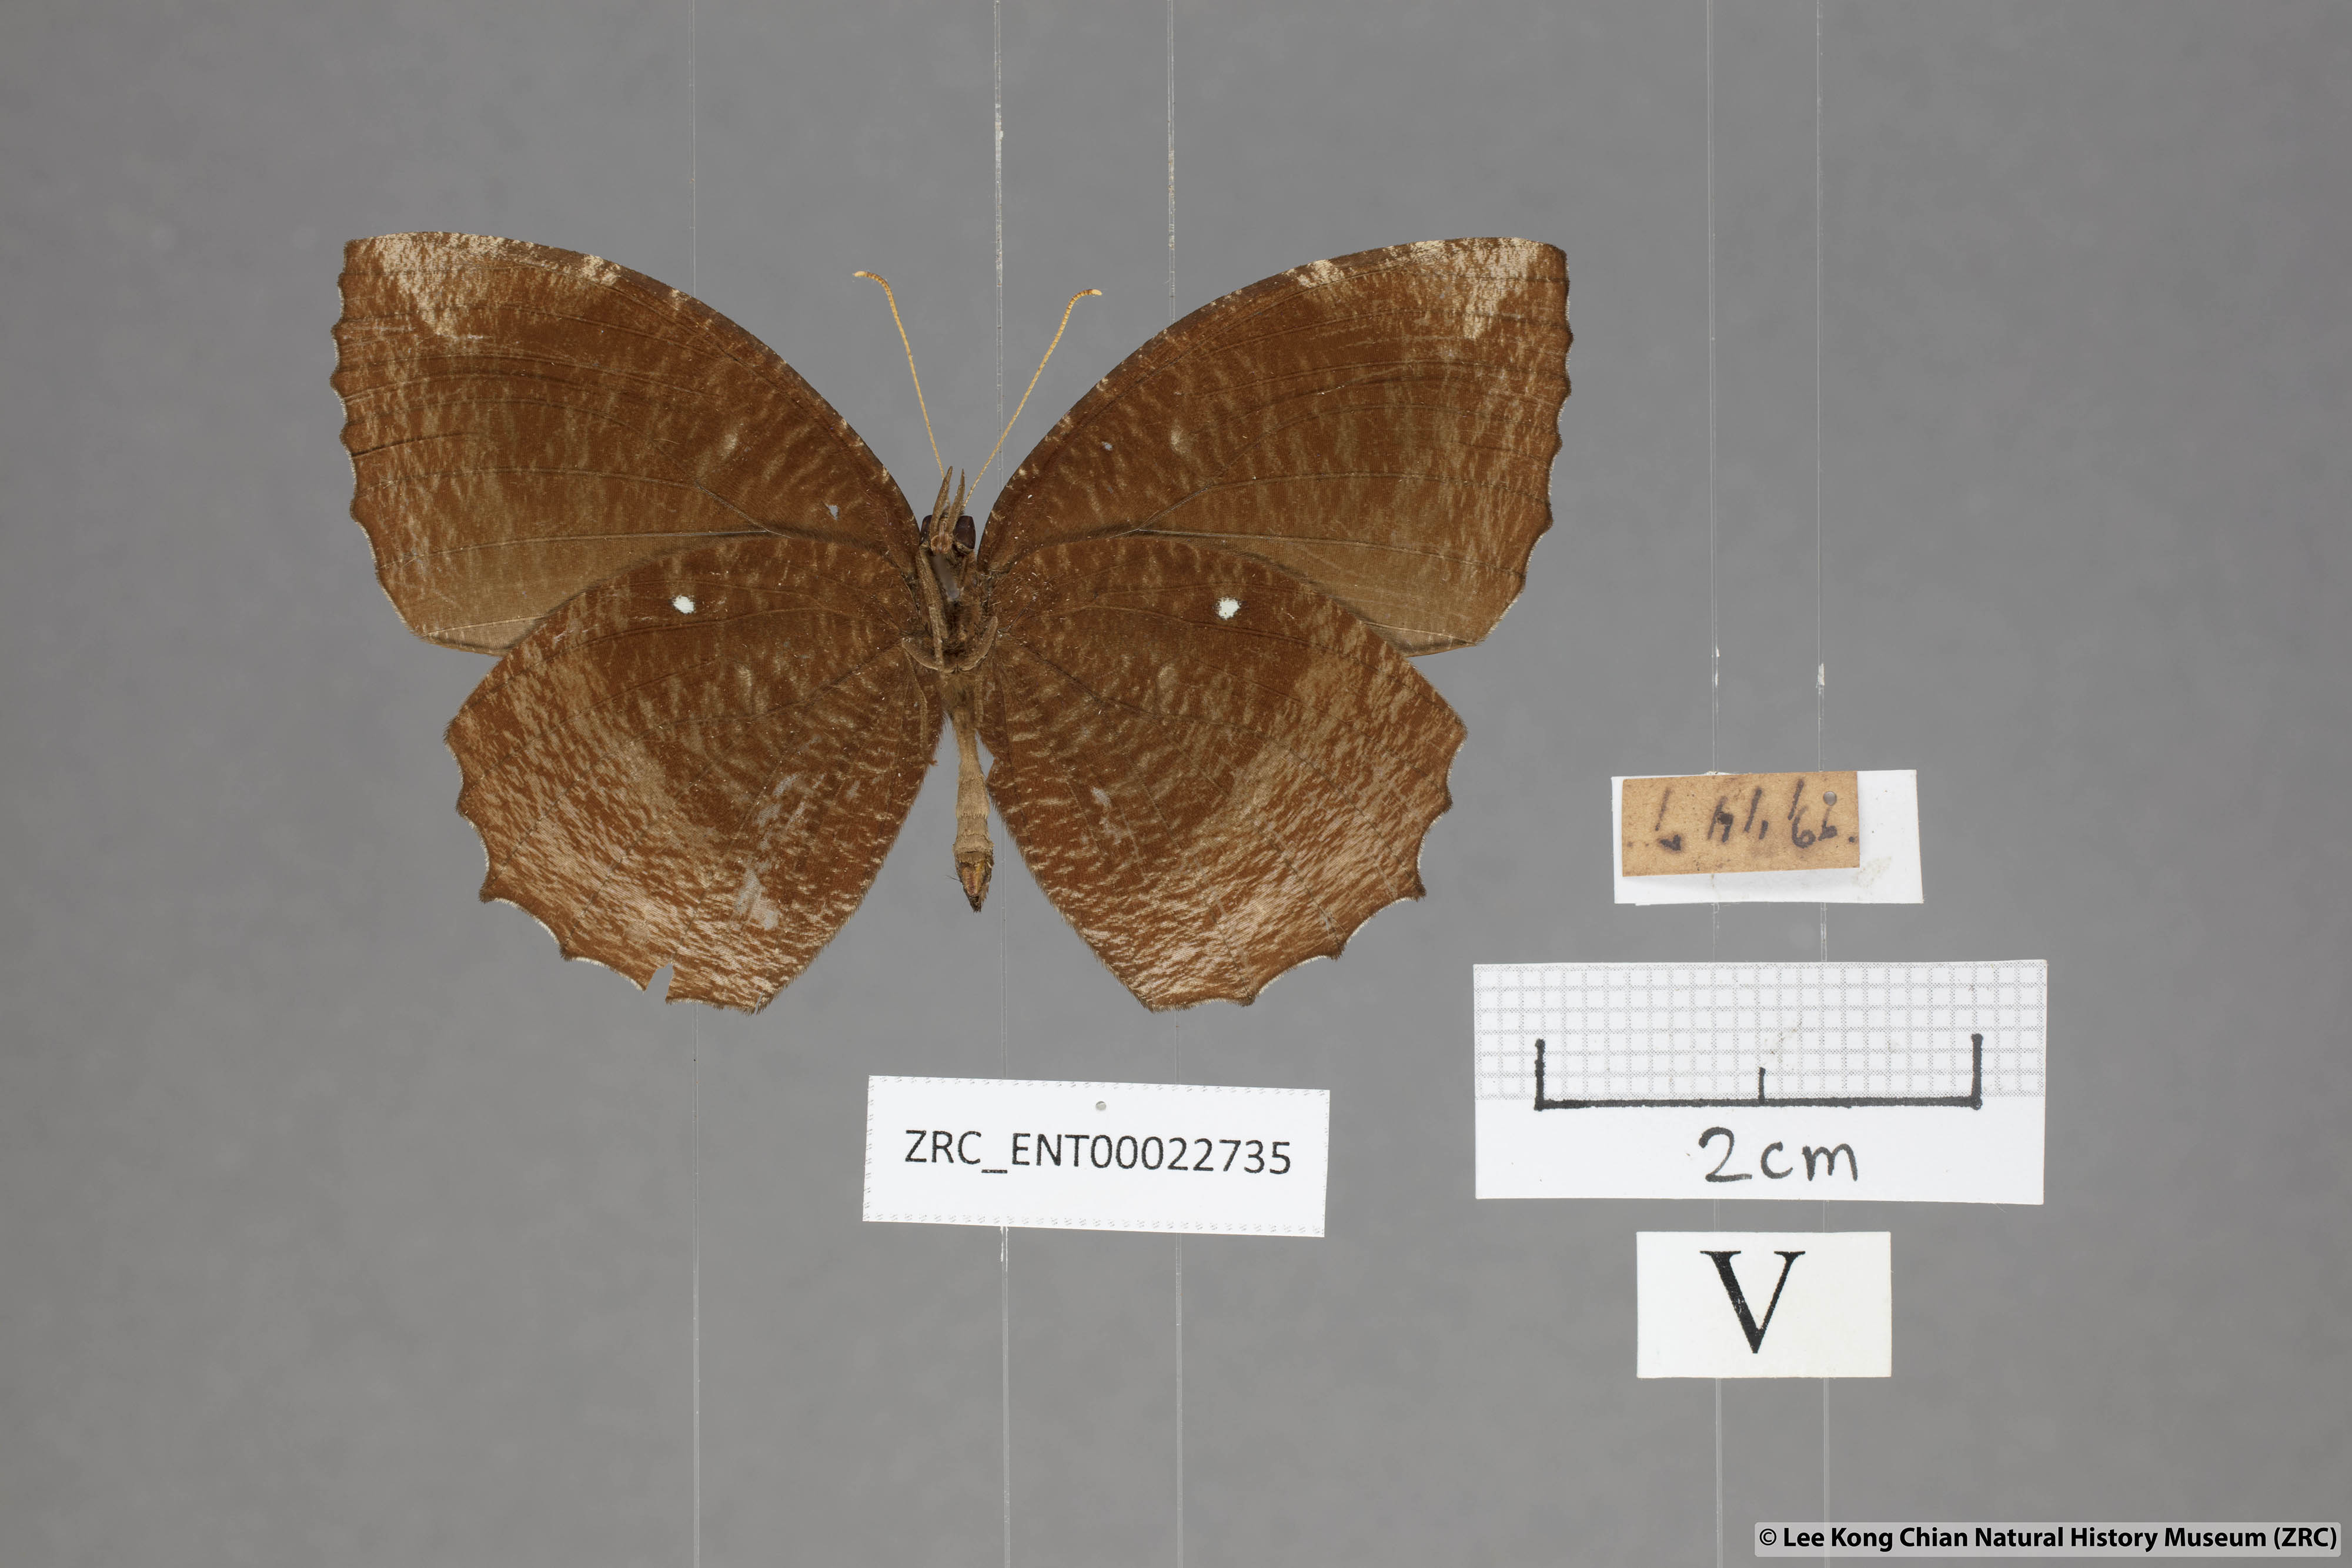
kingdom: Animalia
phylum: Arthropoda
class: Insecta
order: Lepidoptera
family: Nymphalidae
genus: Elymnias
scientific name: Elymnias hypermnestra
